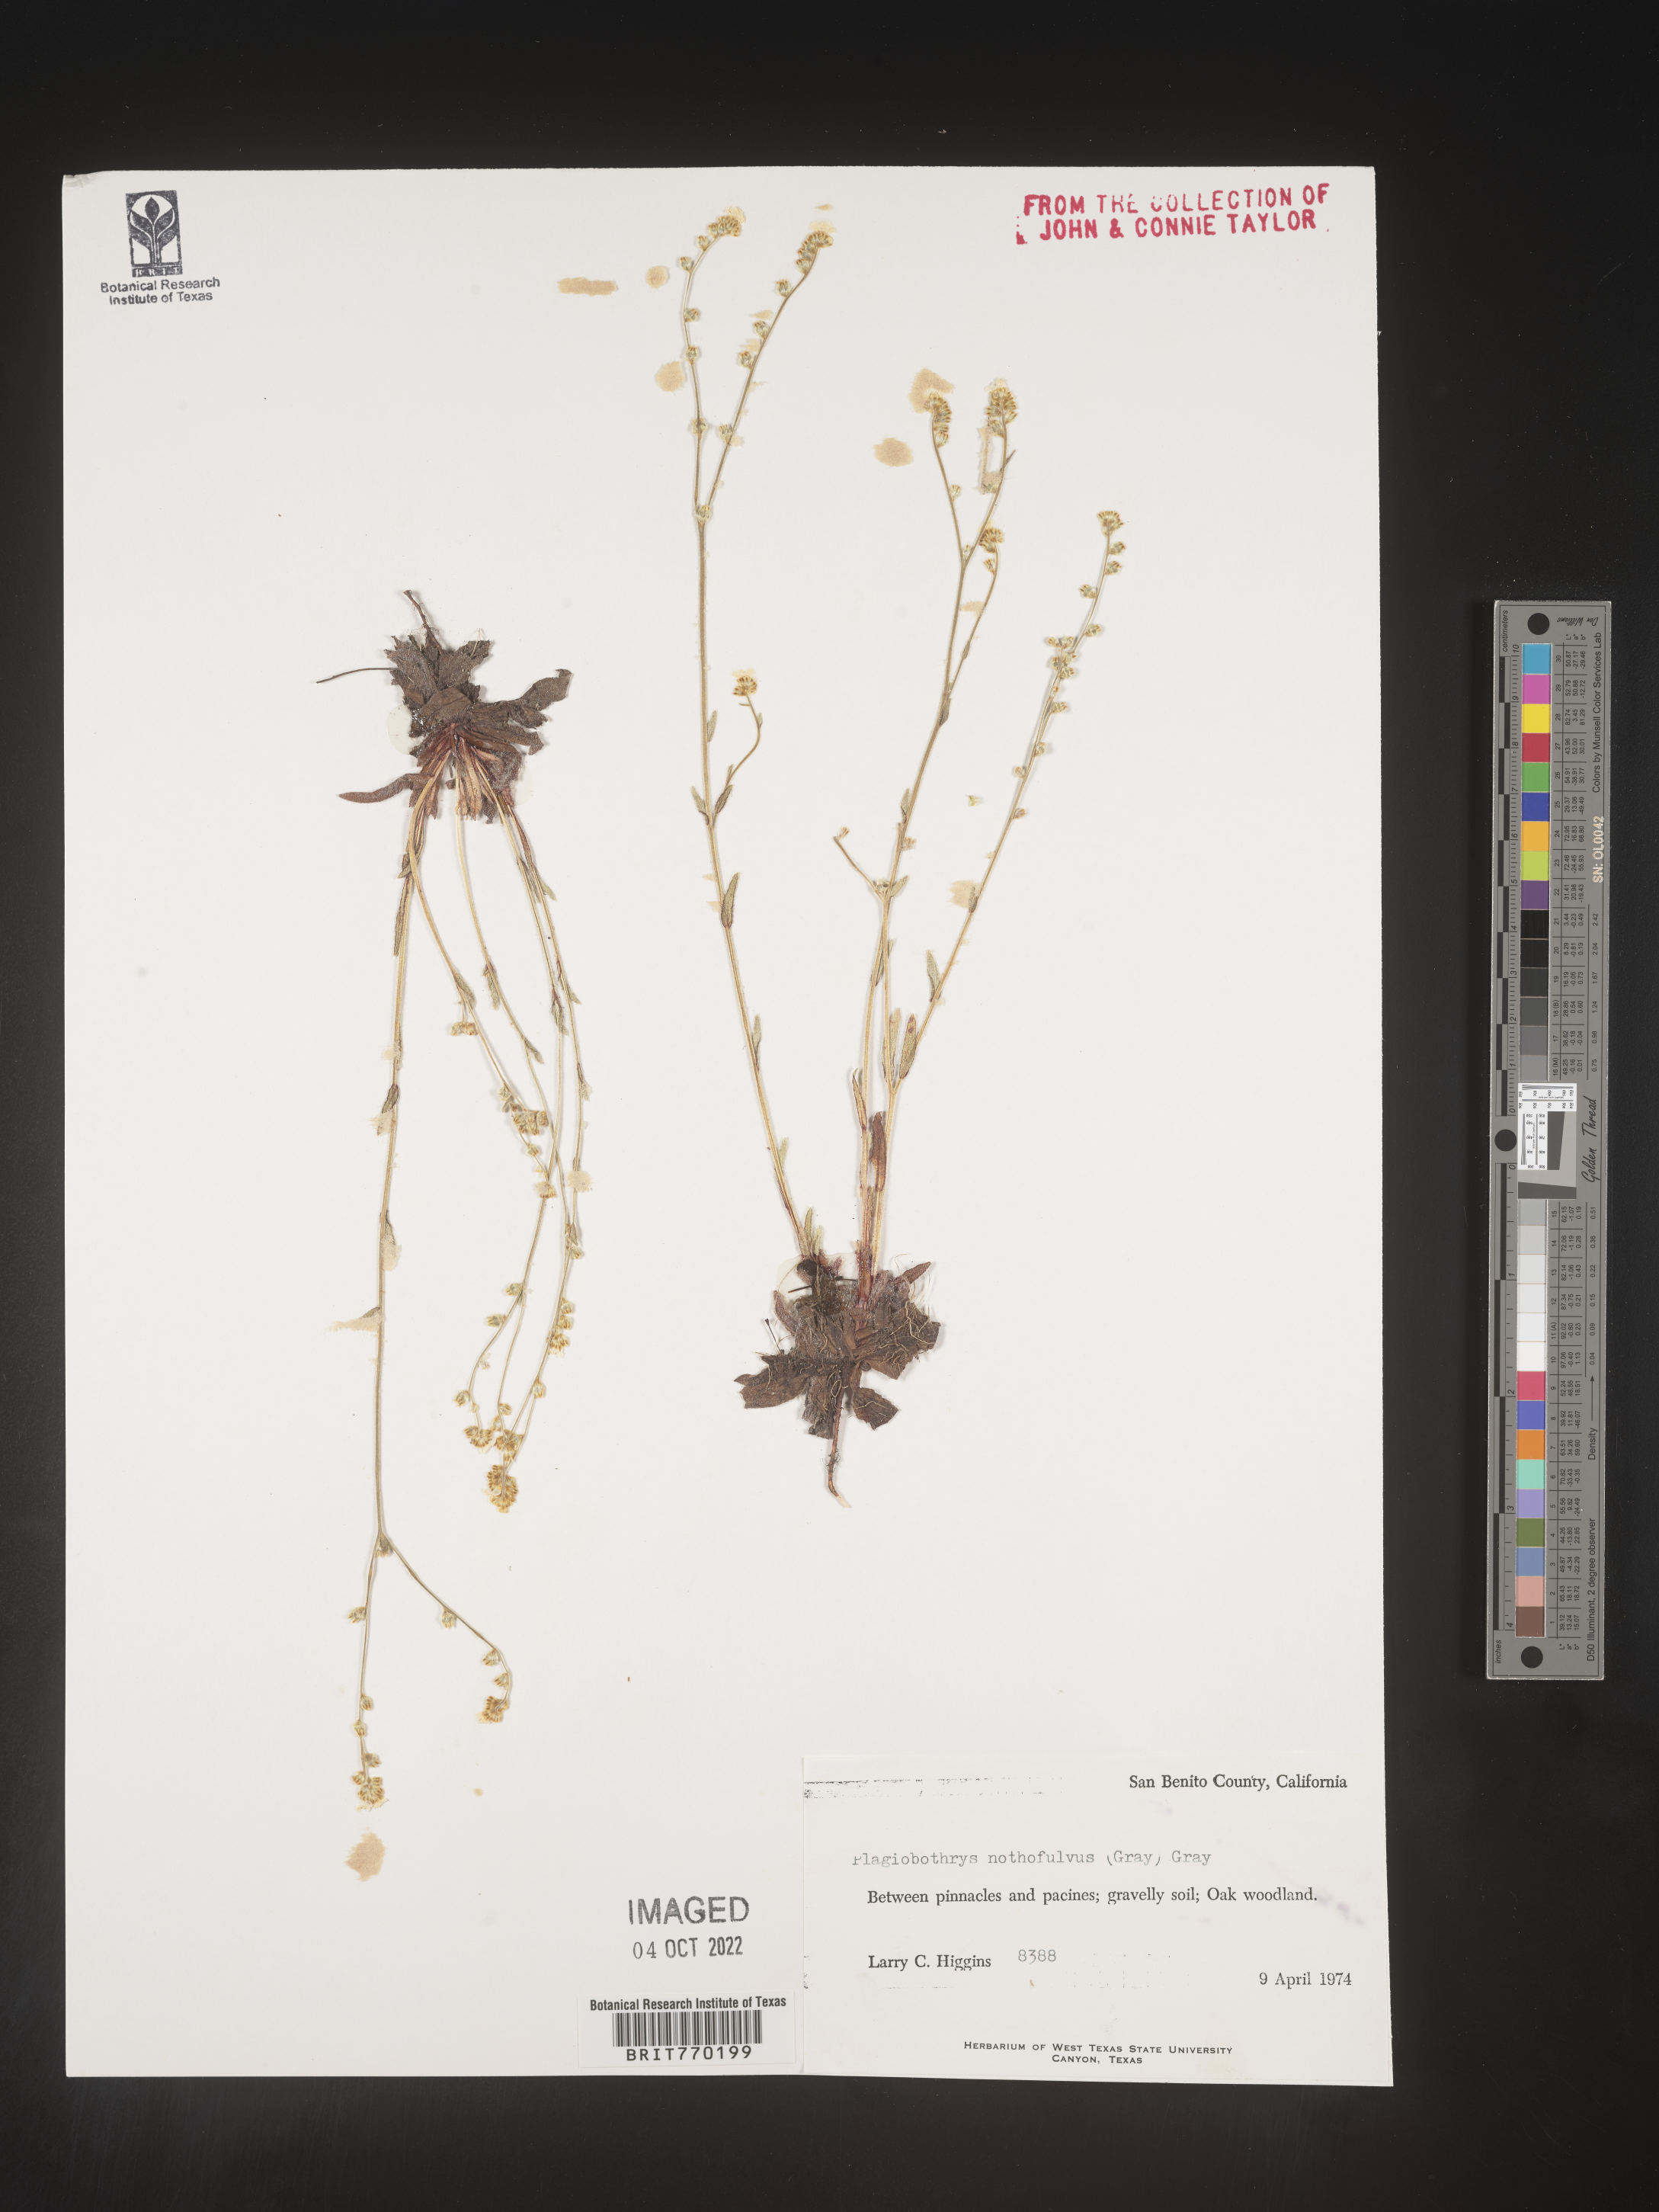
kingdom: Plantae
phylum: Tracheophyta
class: Magnoliopsida
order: Boraginales
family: Boraginaceae
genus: Plagiobothrys
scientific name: Plagiobothrys
